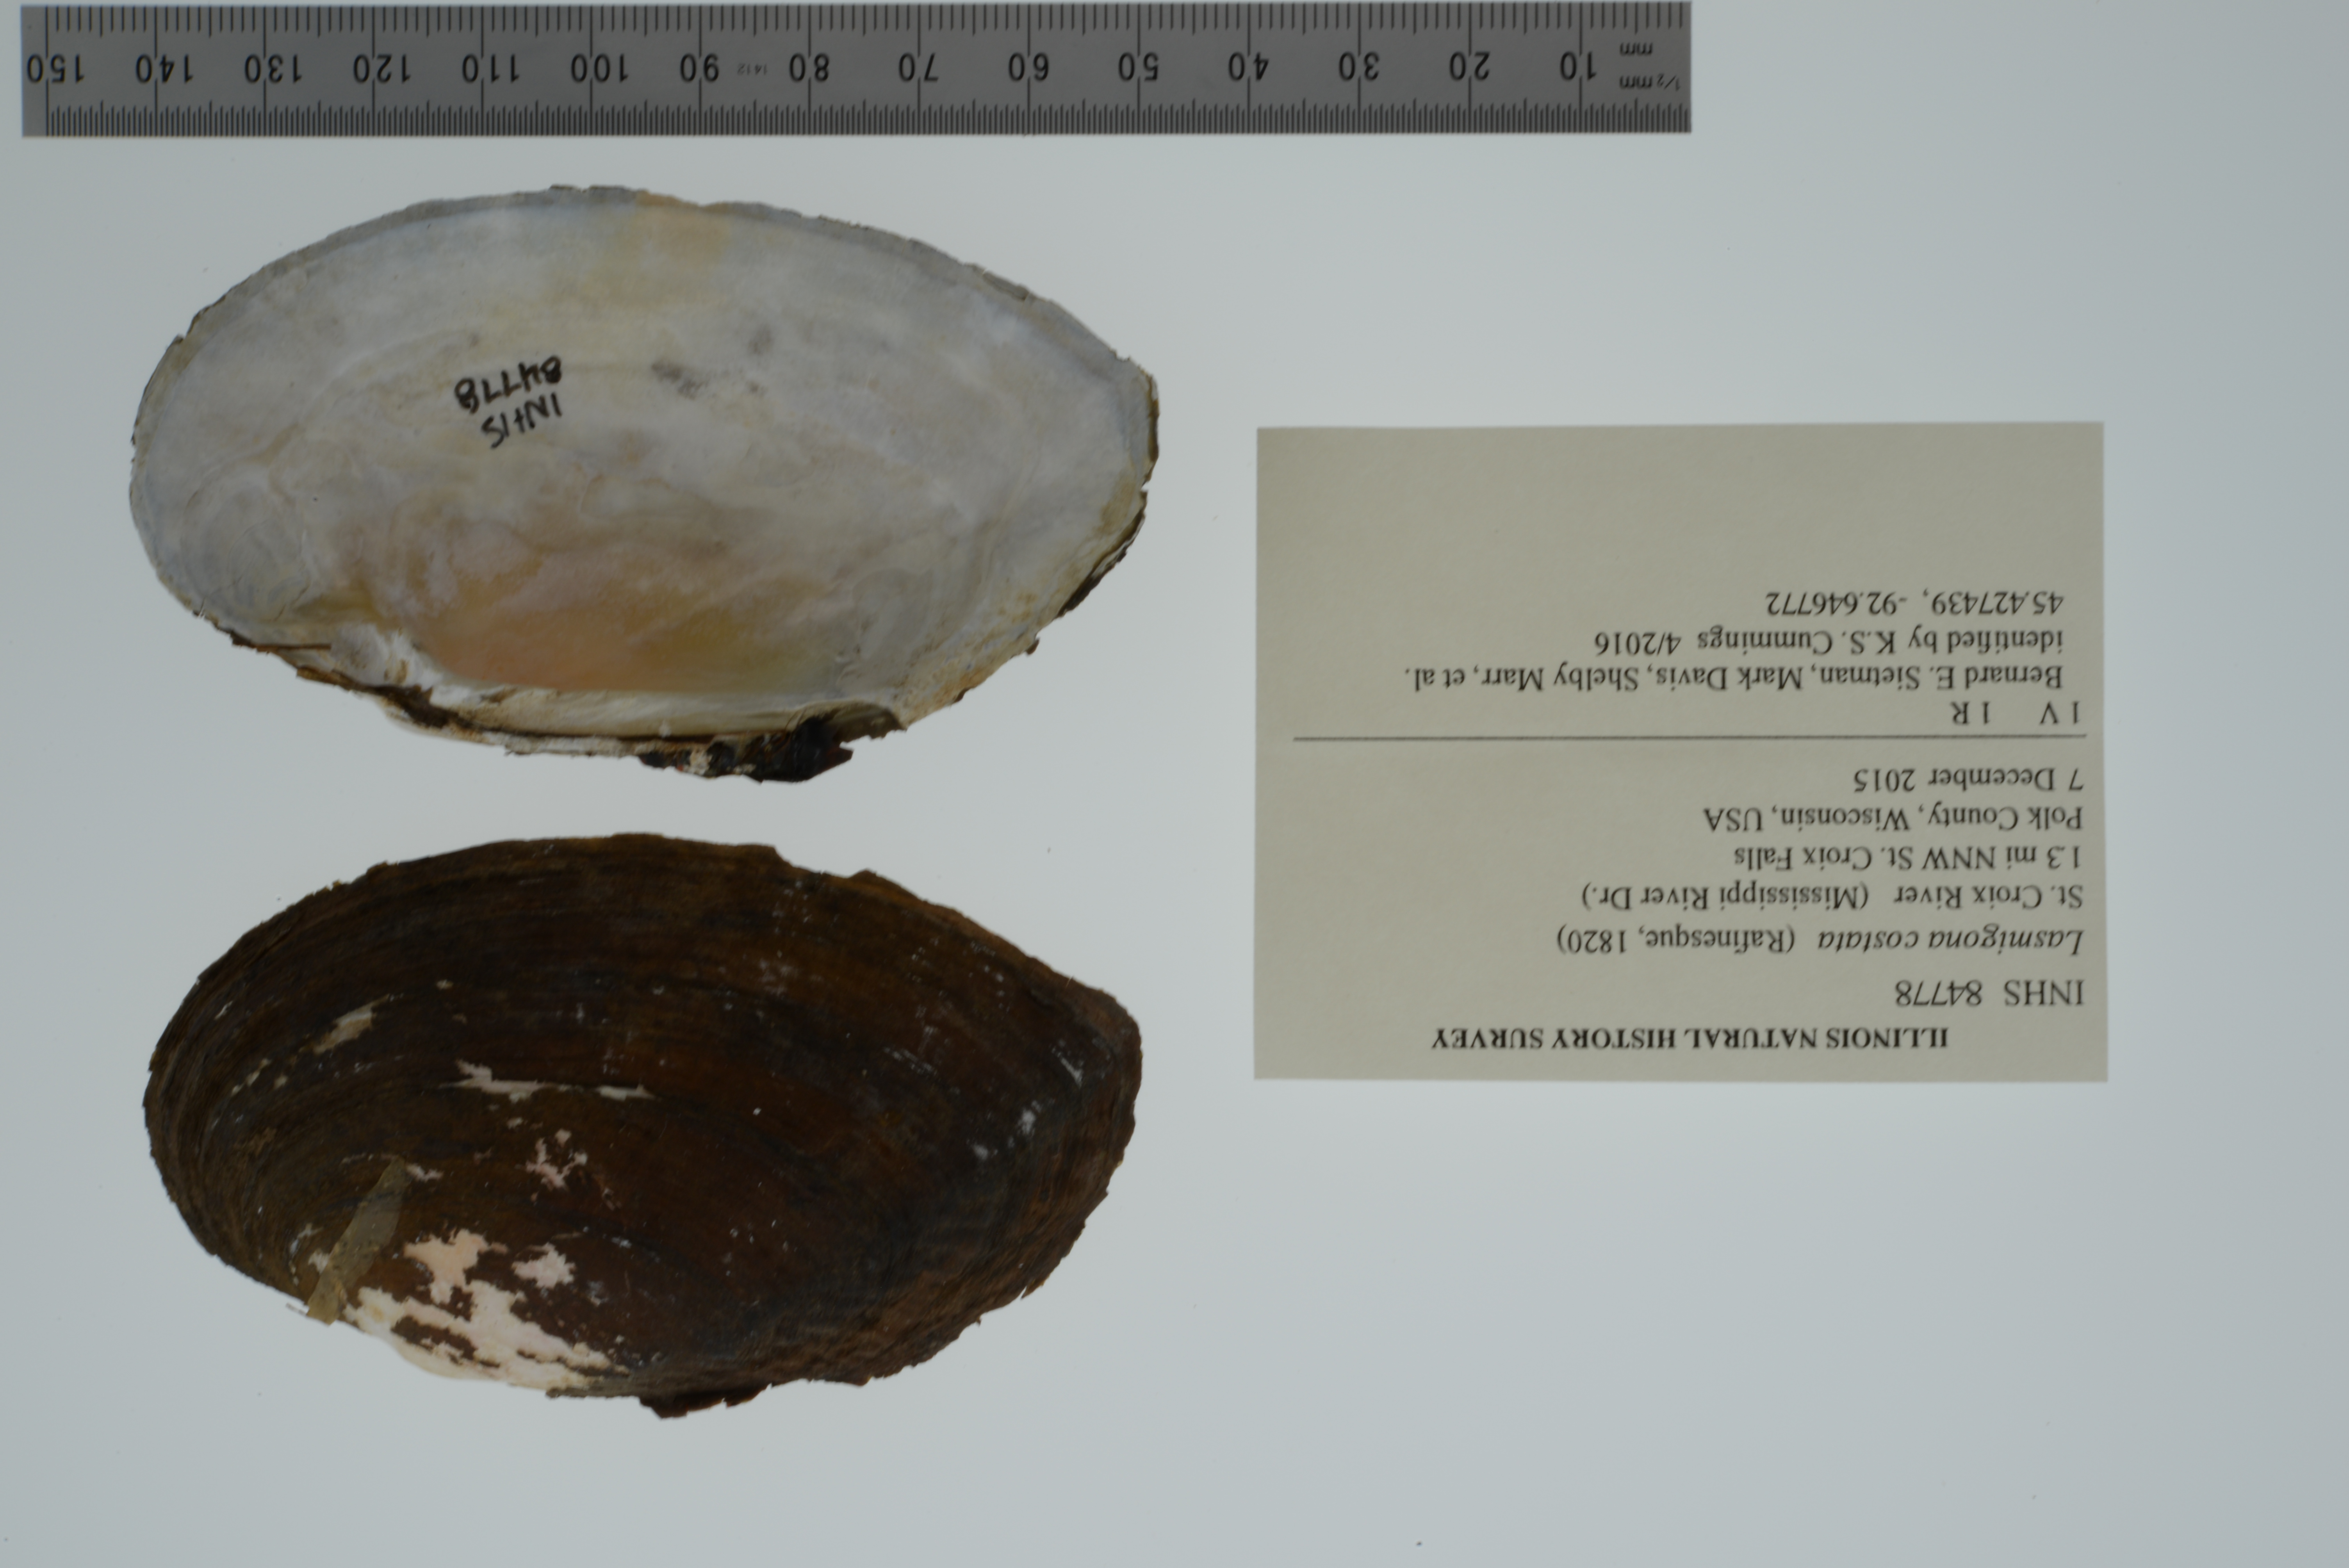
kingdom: Animalia
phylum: Mollusca
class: Bivalvia
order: Unionida
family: Unionidae
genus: Lasmigona
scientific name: Lasmigona costata
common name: Flutedshell
